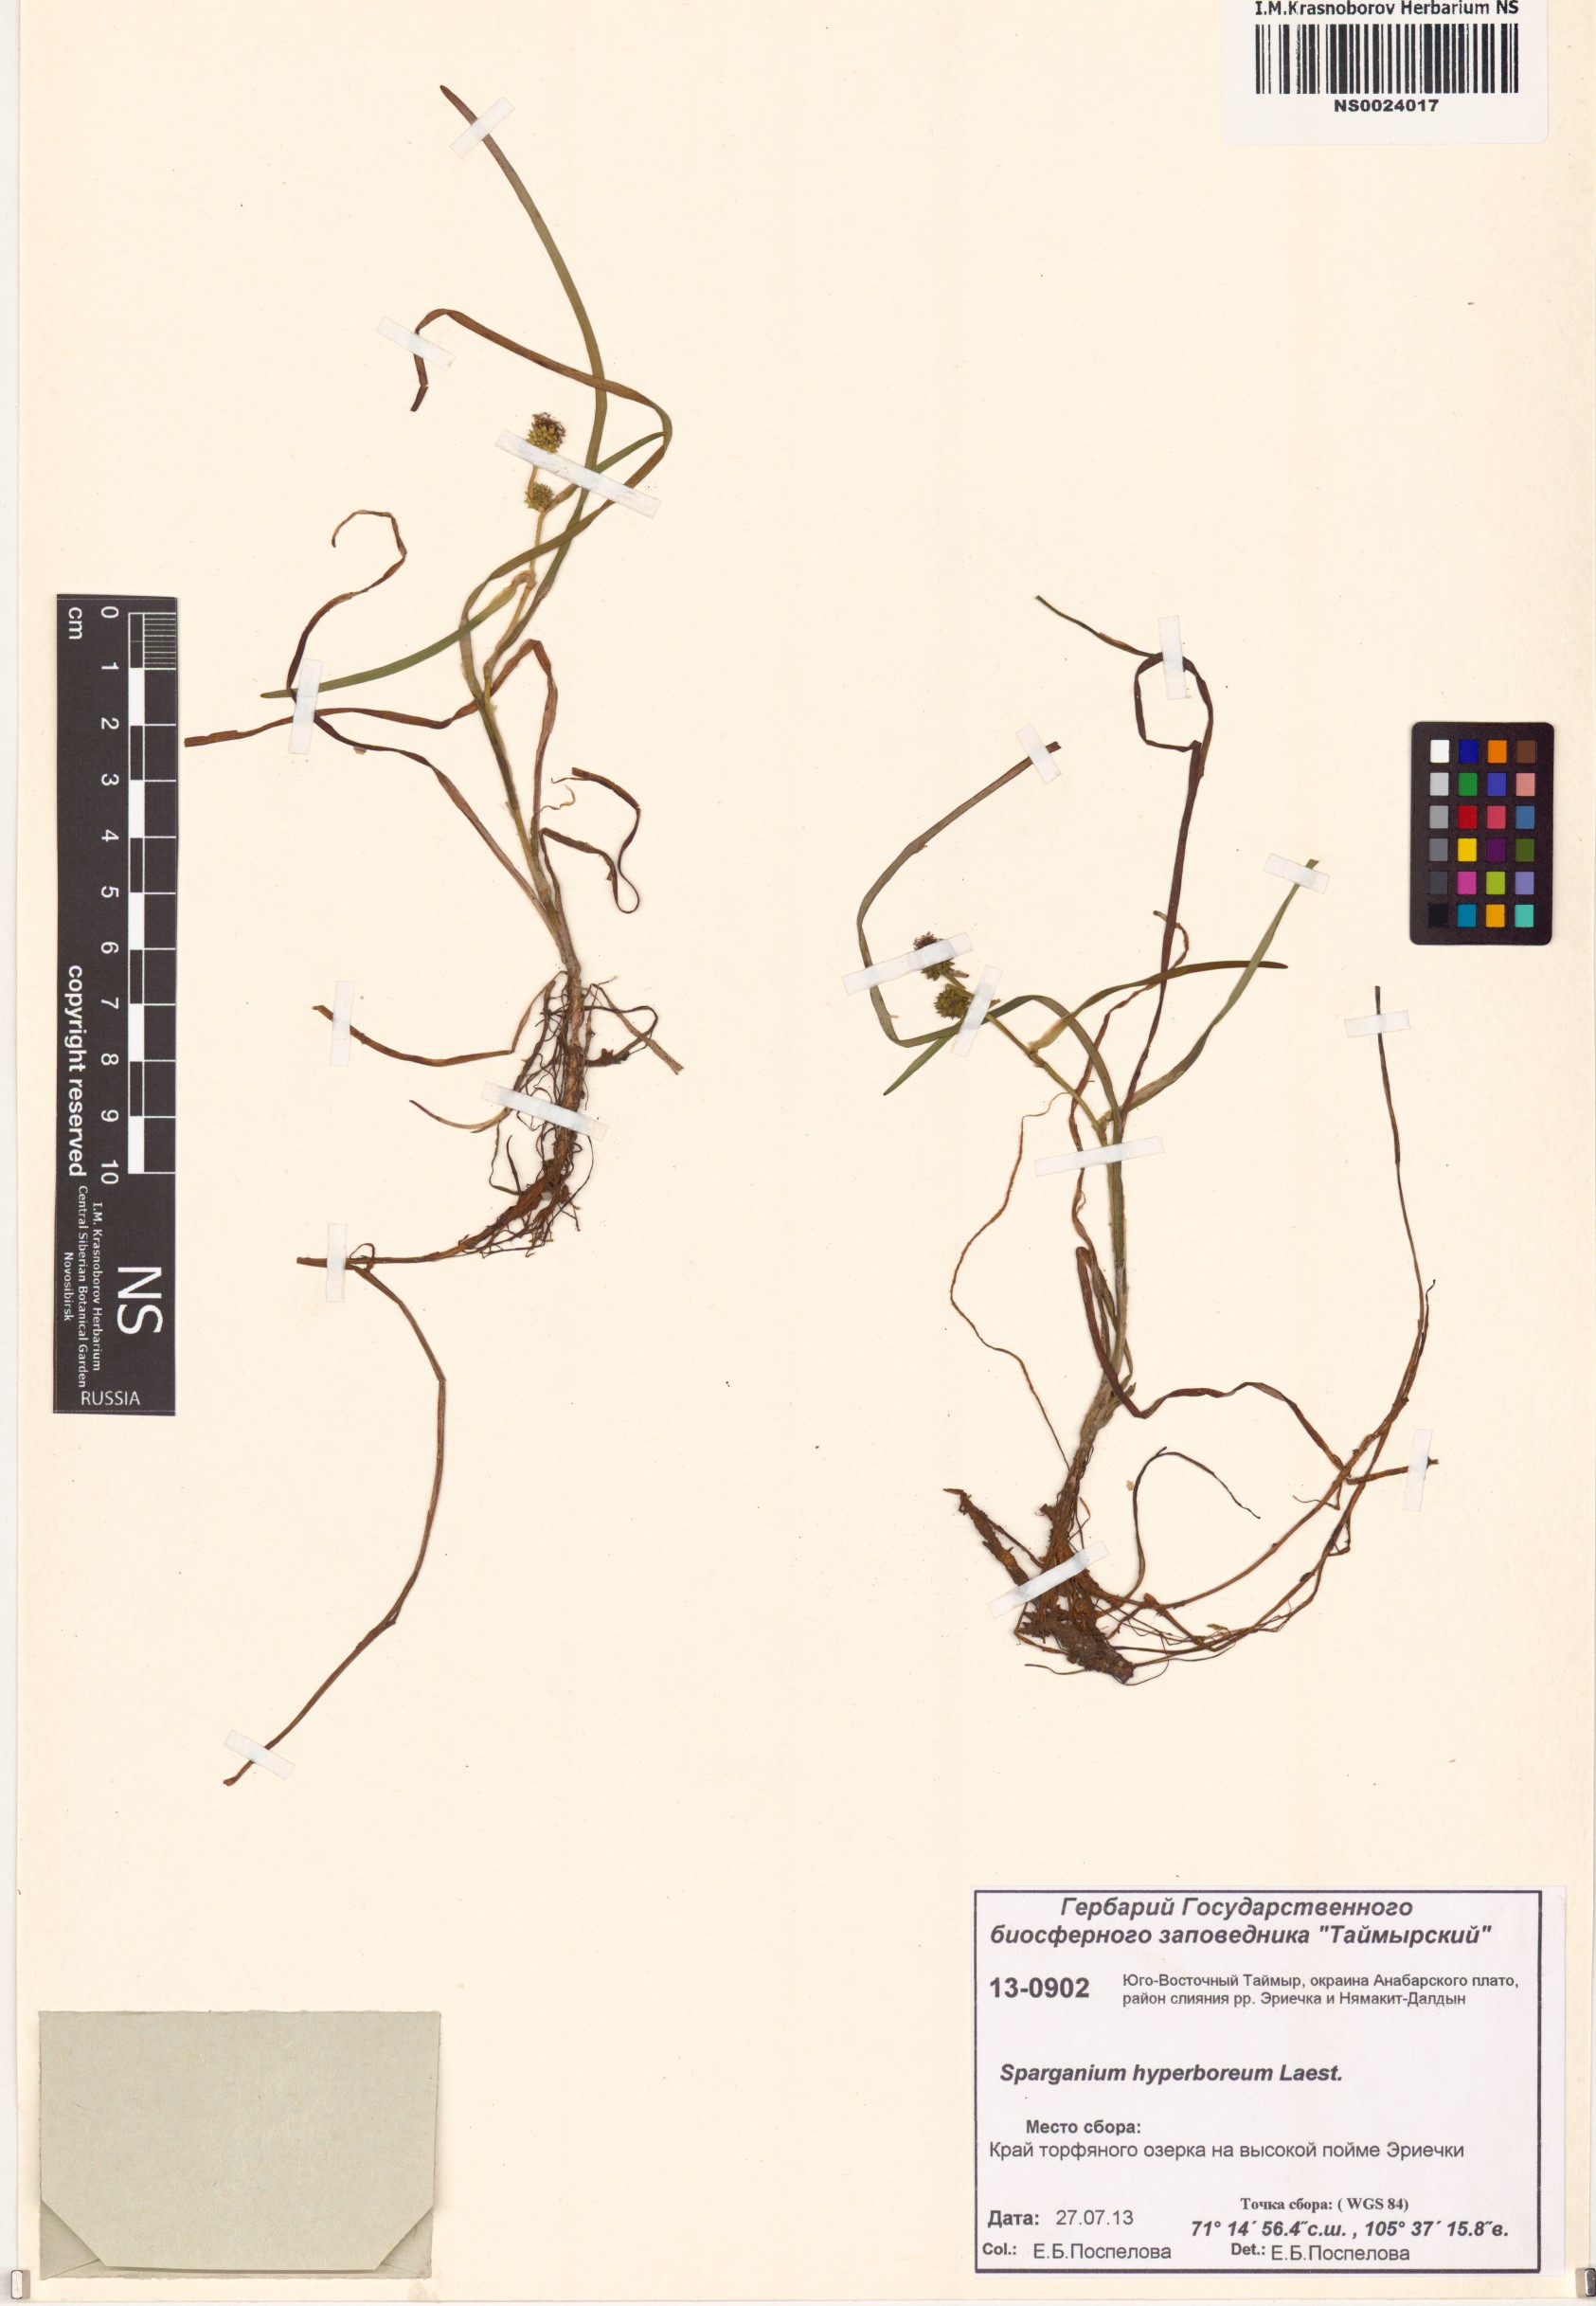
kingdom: Plantae
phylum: Tracheophyta
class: Liliopsida
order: Poales
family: Typhaceae
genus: Sparganium
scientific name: Sparganium hyperboreum
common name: Arctic burreed
